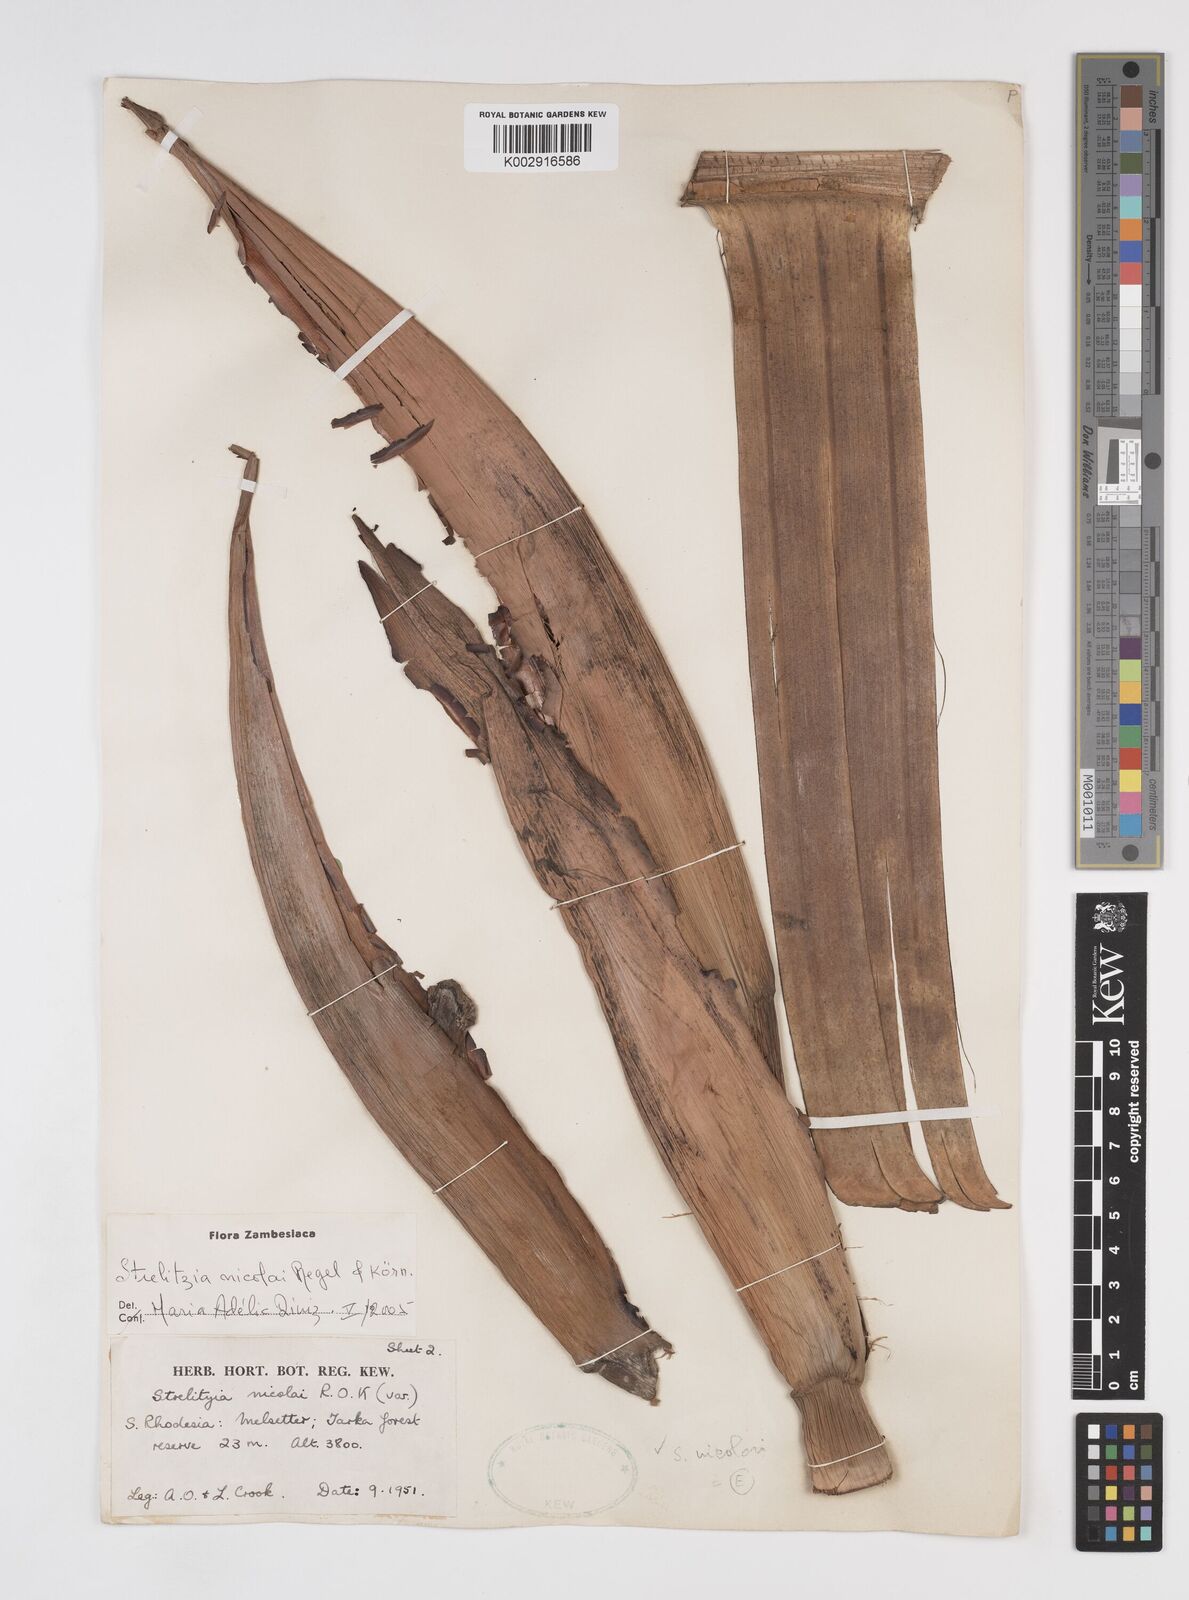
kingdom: Plantae
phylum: Tracheophyta
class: Liliopsida
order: Zingiberales
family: Strelitziaceae
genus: Strelitzia
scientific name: Strelitzia nicolai
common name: Bird-of-paradise tree
